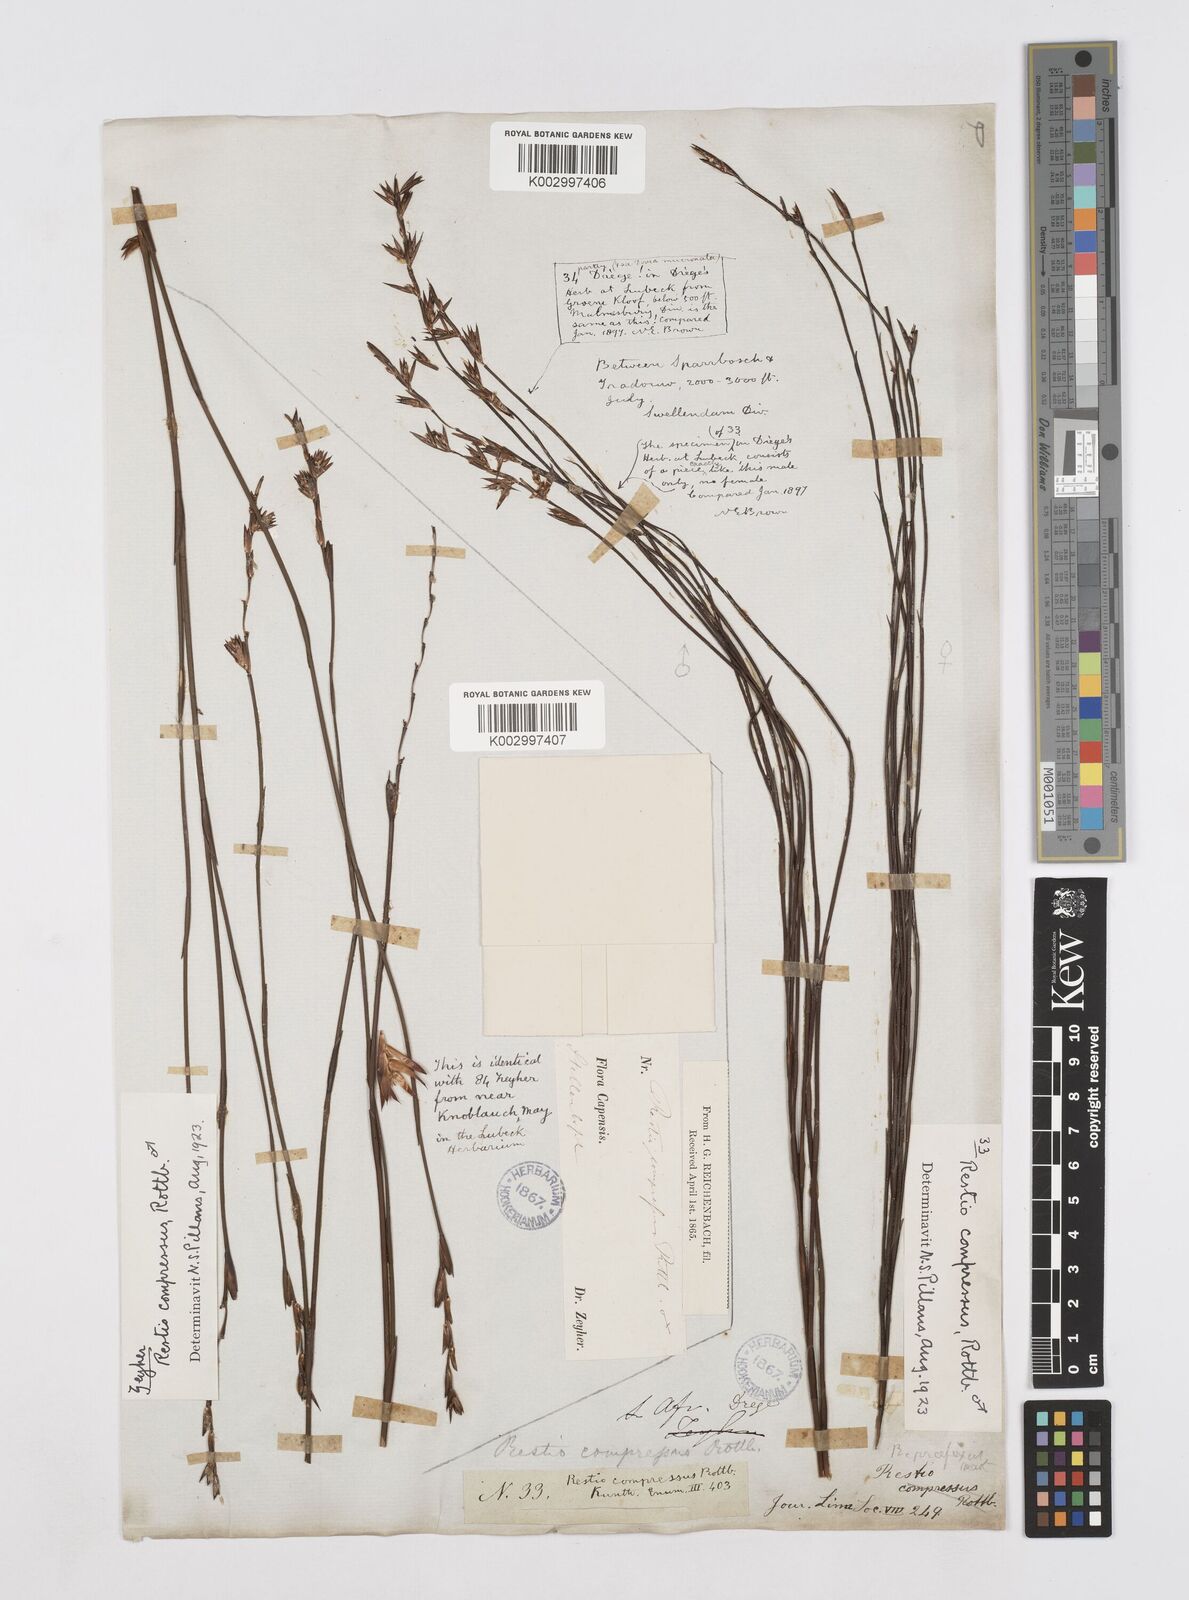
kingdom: Plantae
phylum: Tracheophyta
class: Liliopsida
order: Poales
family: Restionaceae
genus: Platycaulos
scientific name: Platycaulos compressus
